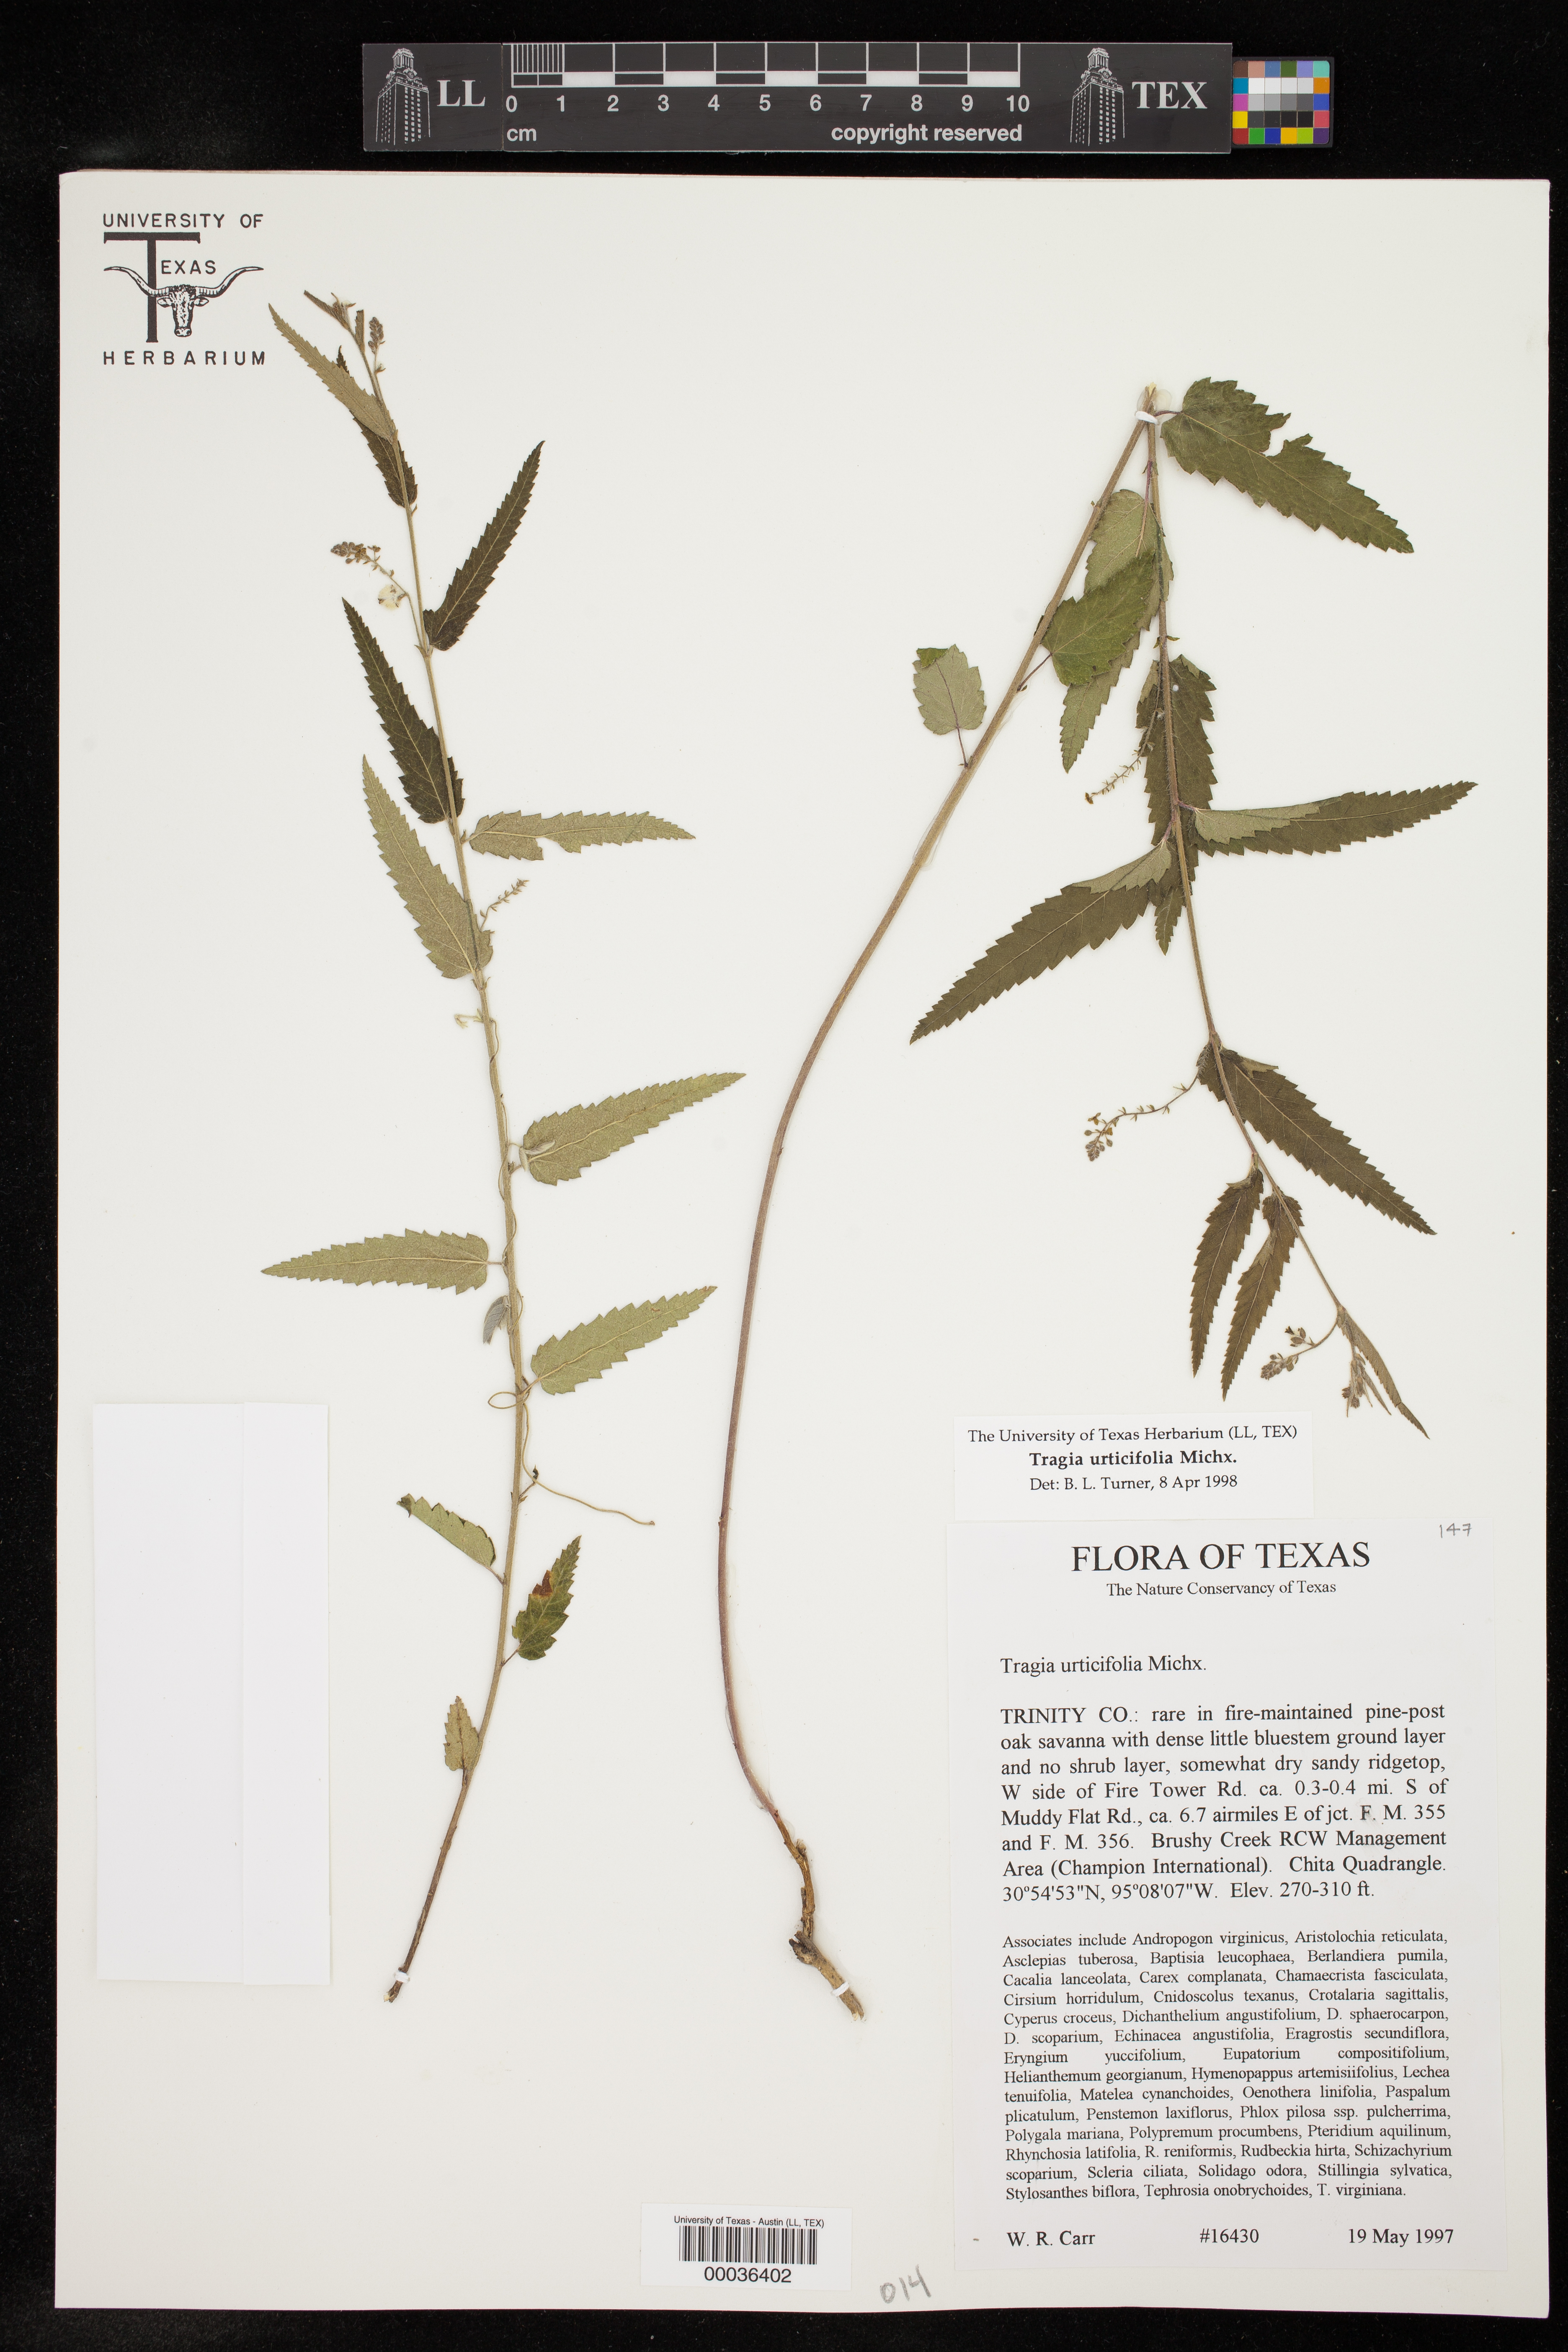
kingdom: Plantae
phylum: Tracheophyta
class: Magnoliopsida
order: Malpighiales
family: Euphorbiaceae
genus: Tragia
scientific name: Tragia urticifolia
